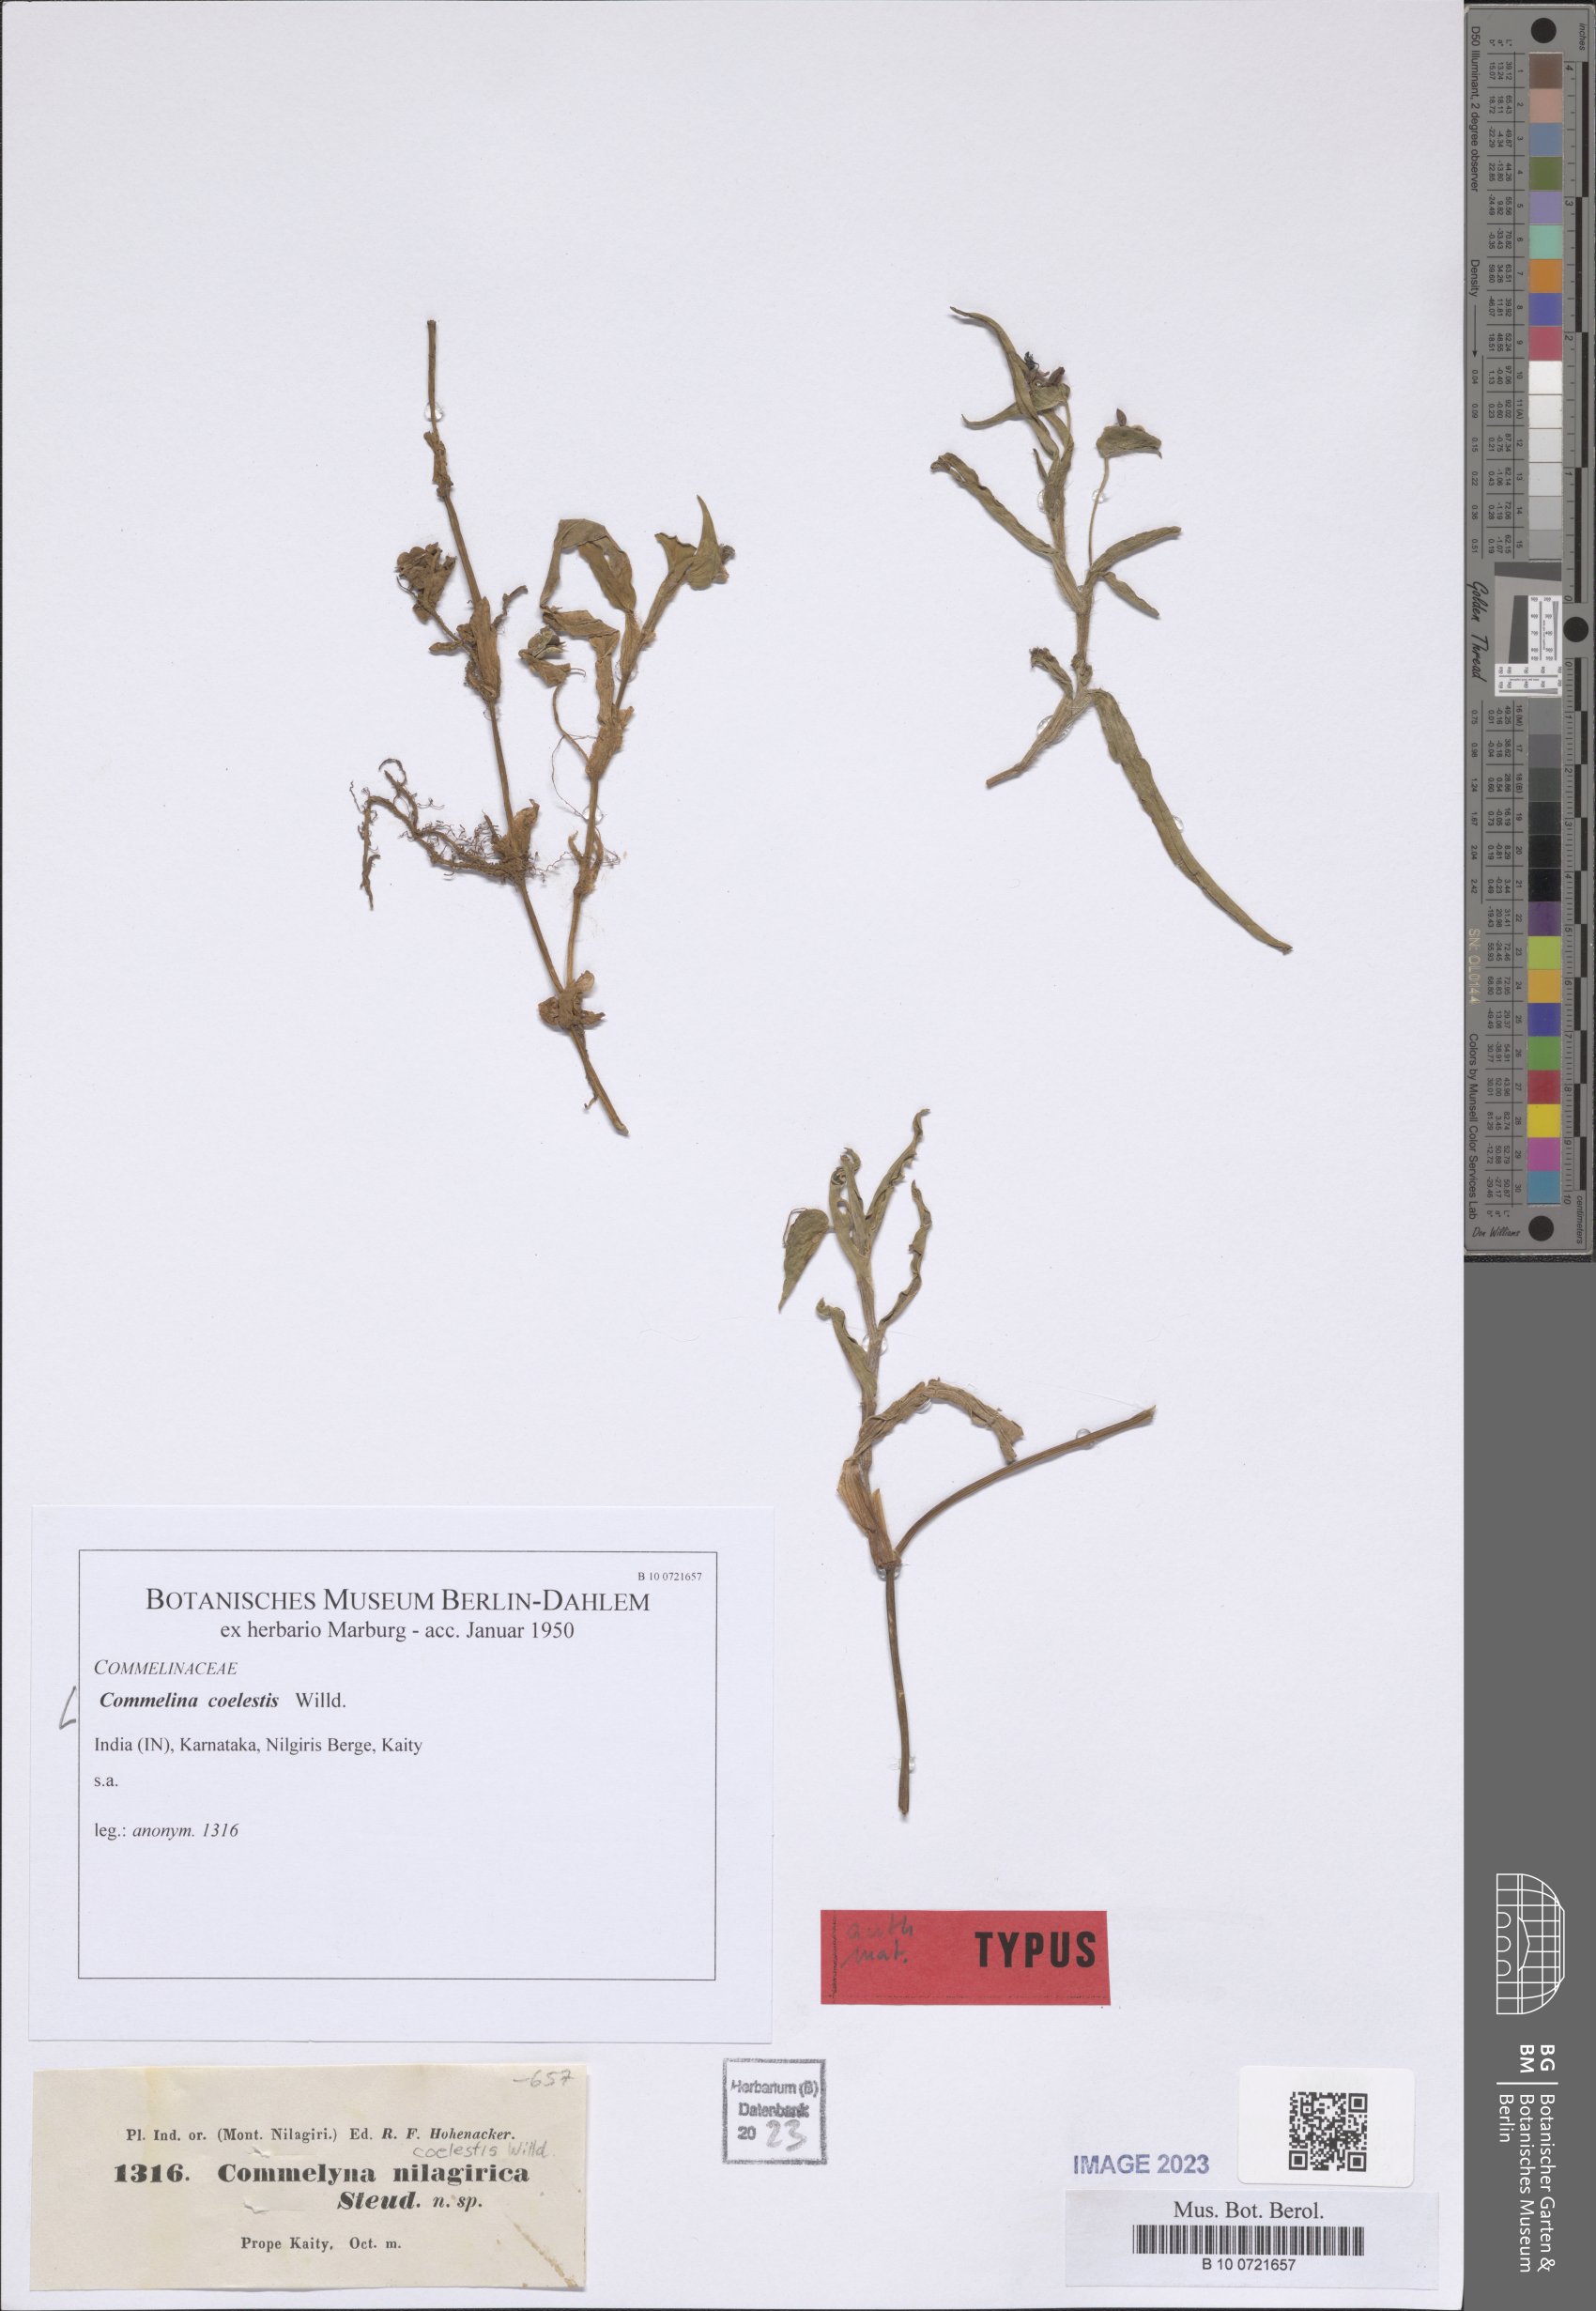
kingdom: Plantae
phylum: Tracheophyta
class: Liliopsida
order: Commelinales
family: Commelinaceae
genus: Commelina
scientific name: Commelina tuberosa
